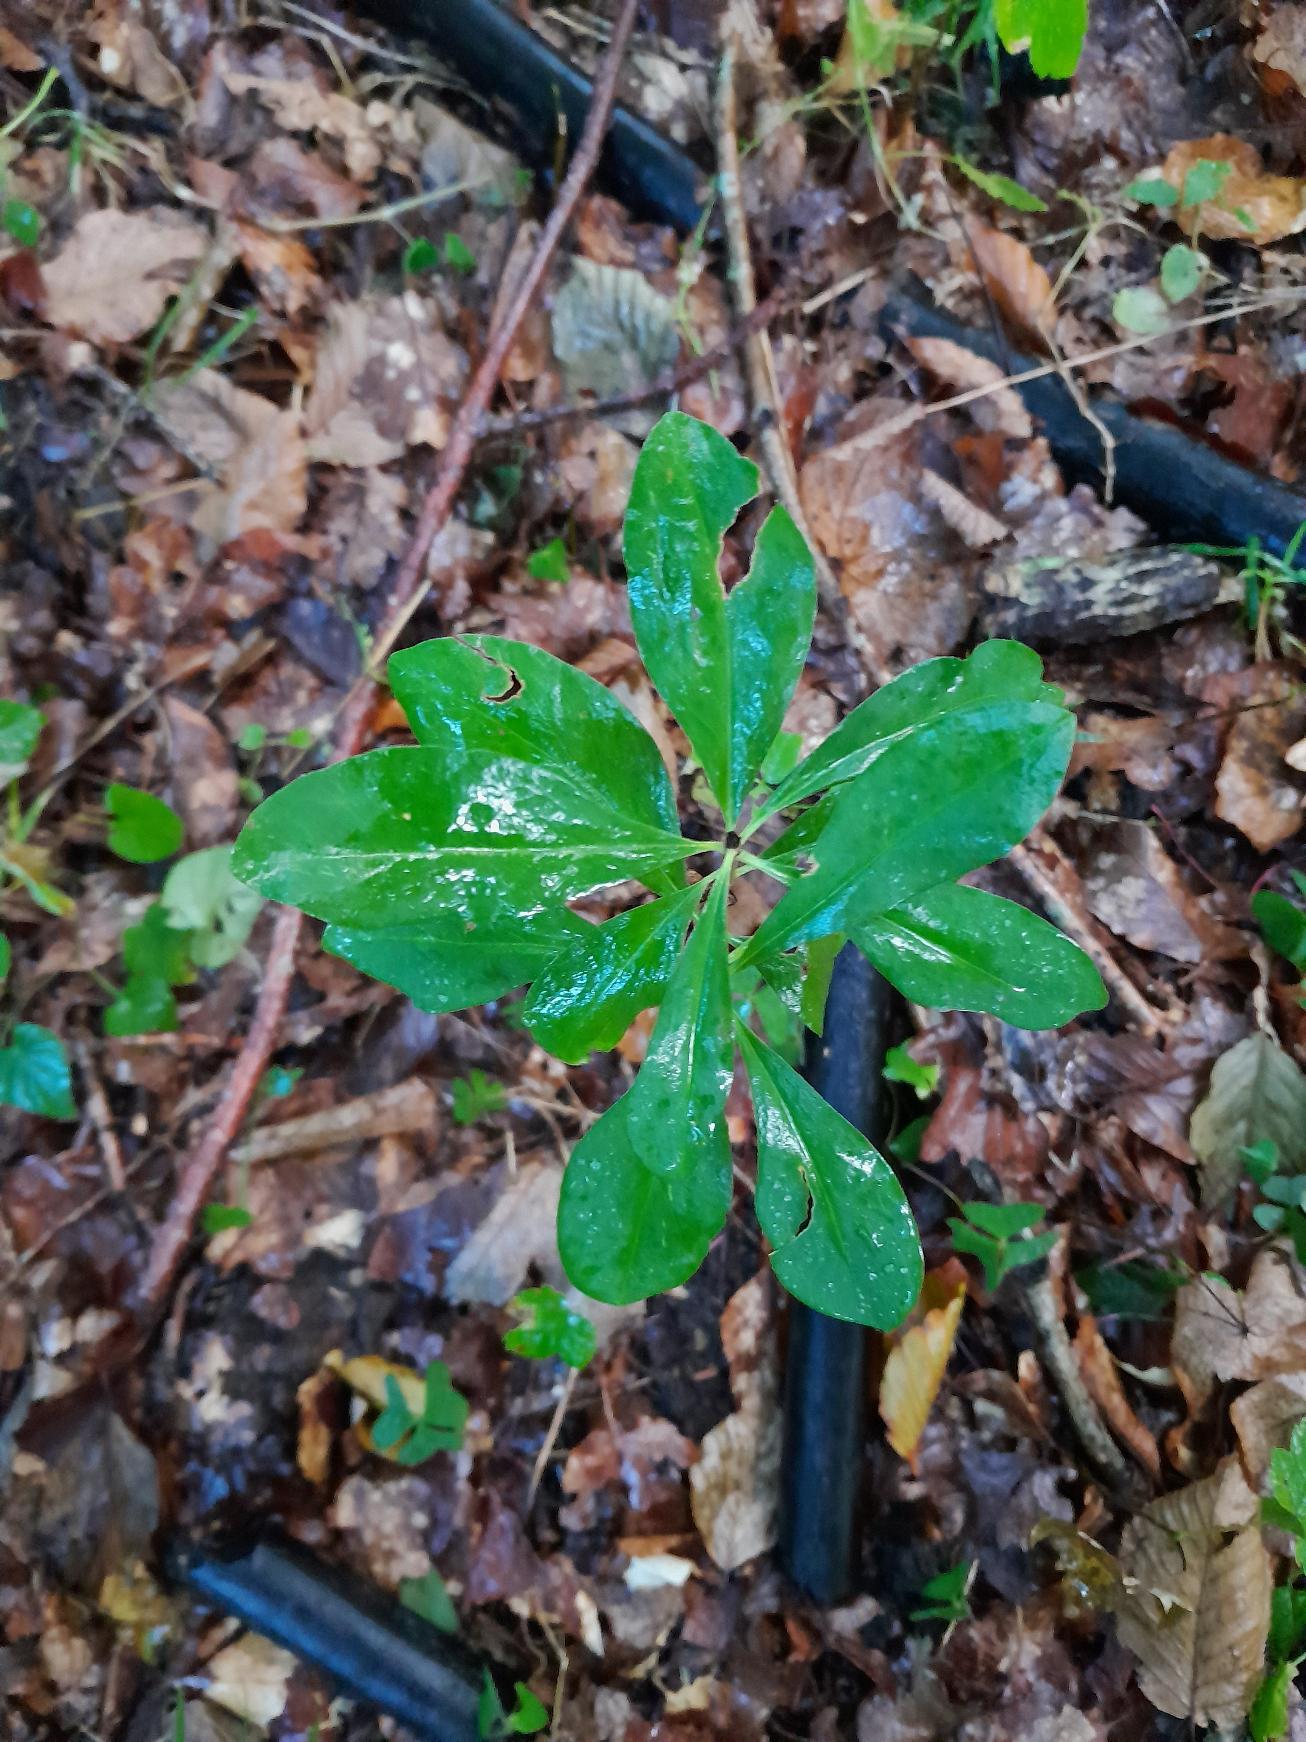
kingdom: Plantae
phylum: Tracheophyta
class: Magnoliopsida
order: Malvales
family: Thymelaeaceae
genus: Daphne
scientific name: Daphne mezereum
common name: Pebertræ
